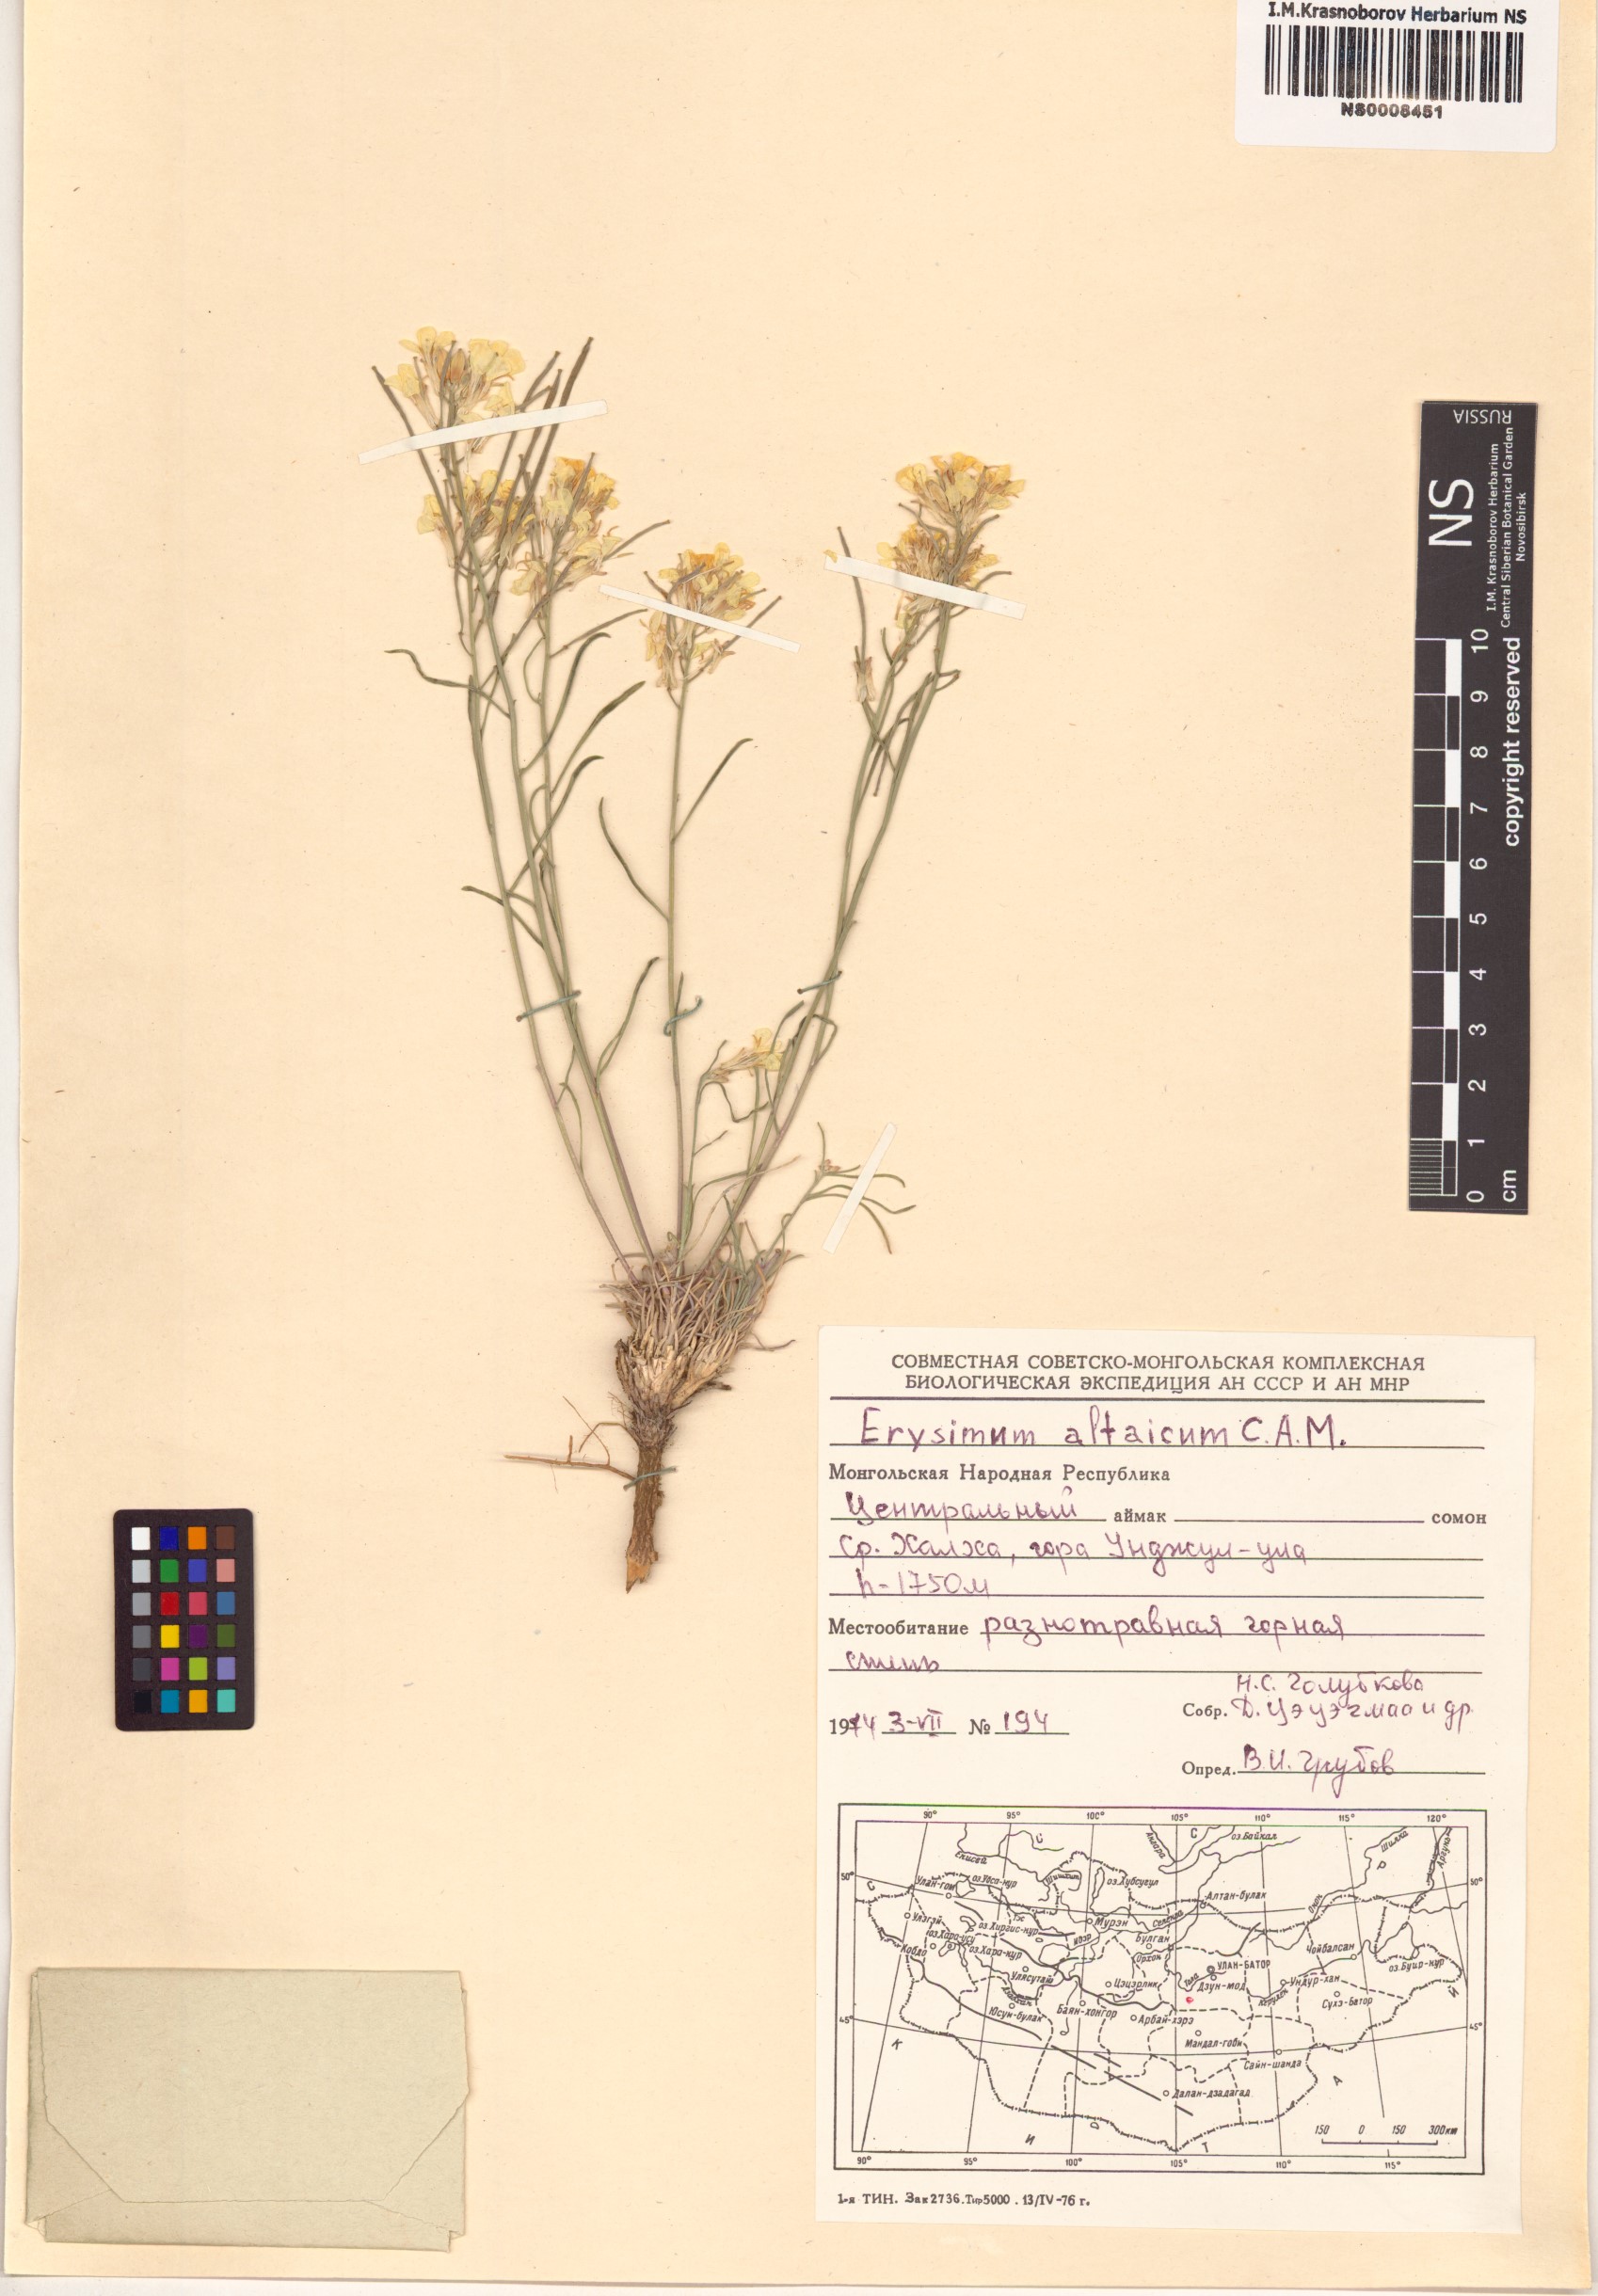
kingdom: Plantae
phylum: Tracheophyta
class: Magnoliopsida
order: Brassicales
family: Brassicaceae
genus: Erysimum
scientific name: Erysimum altaicum
